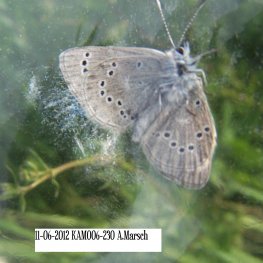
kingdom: Animalia
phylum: Arthropoda
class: Insecta
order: Lepidoptera
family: Lycaenidae
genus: Glaucopsyche
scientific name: Glaucopsyche lygdamus
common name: Silvery Blue
